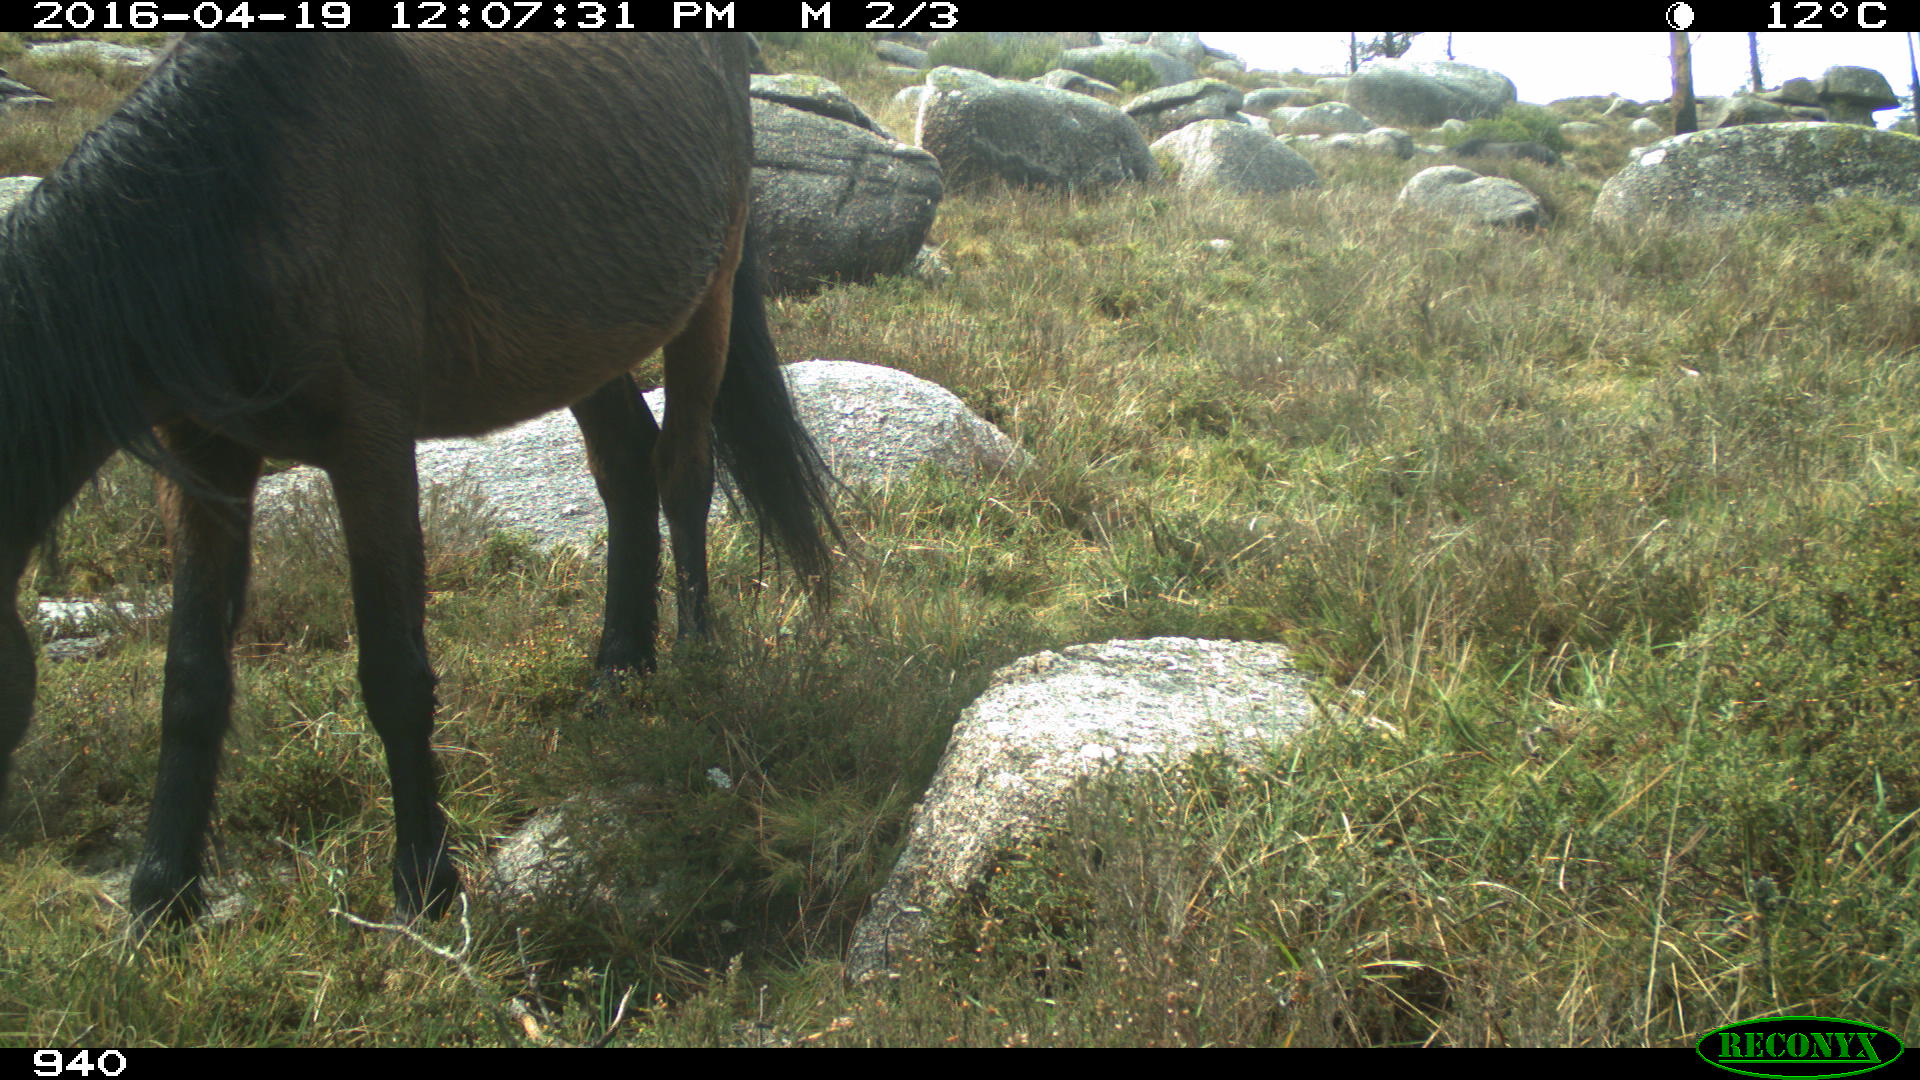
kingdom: Animalia
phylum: Chordata
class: Mammalia
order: Perissodactyla
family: Equidae
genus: Equus
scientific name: Equus caballus
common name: Horse
